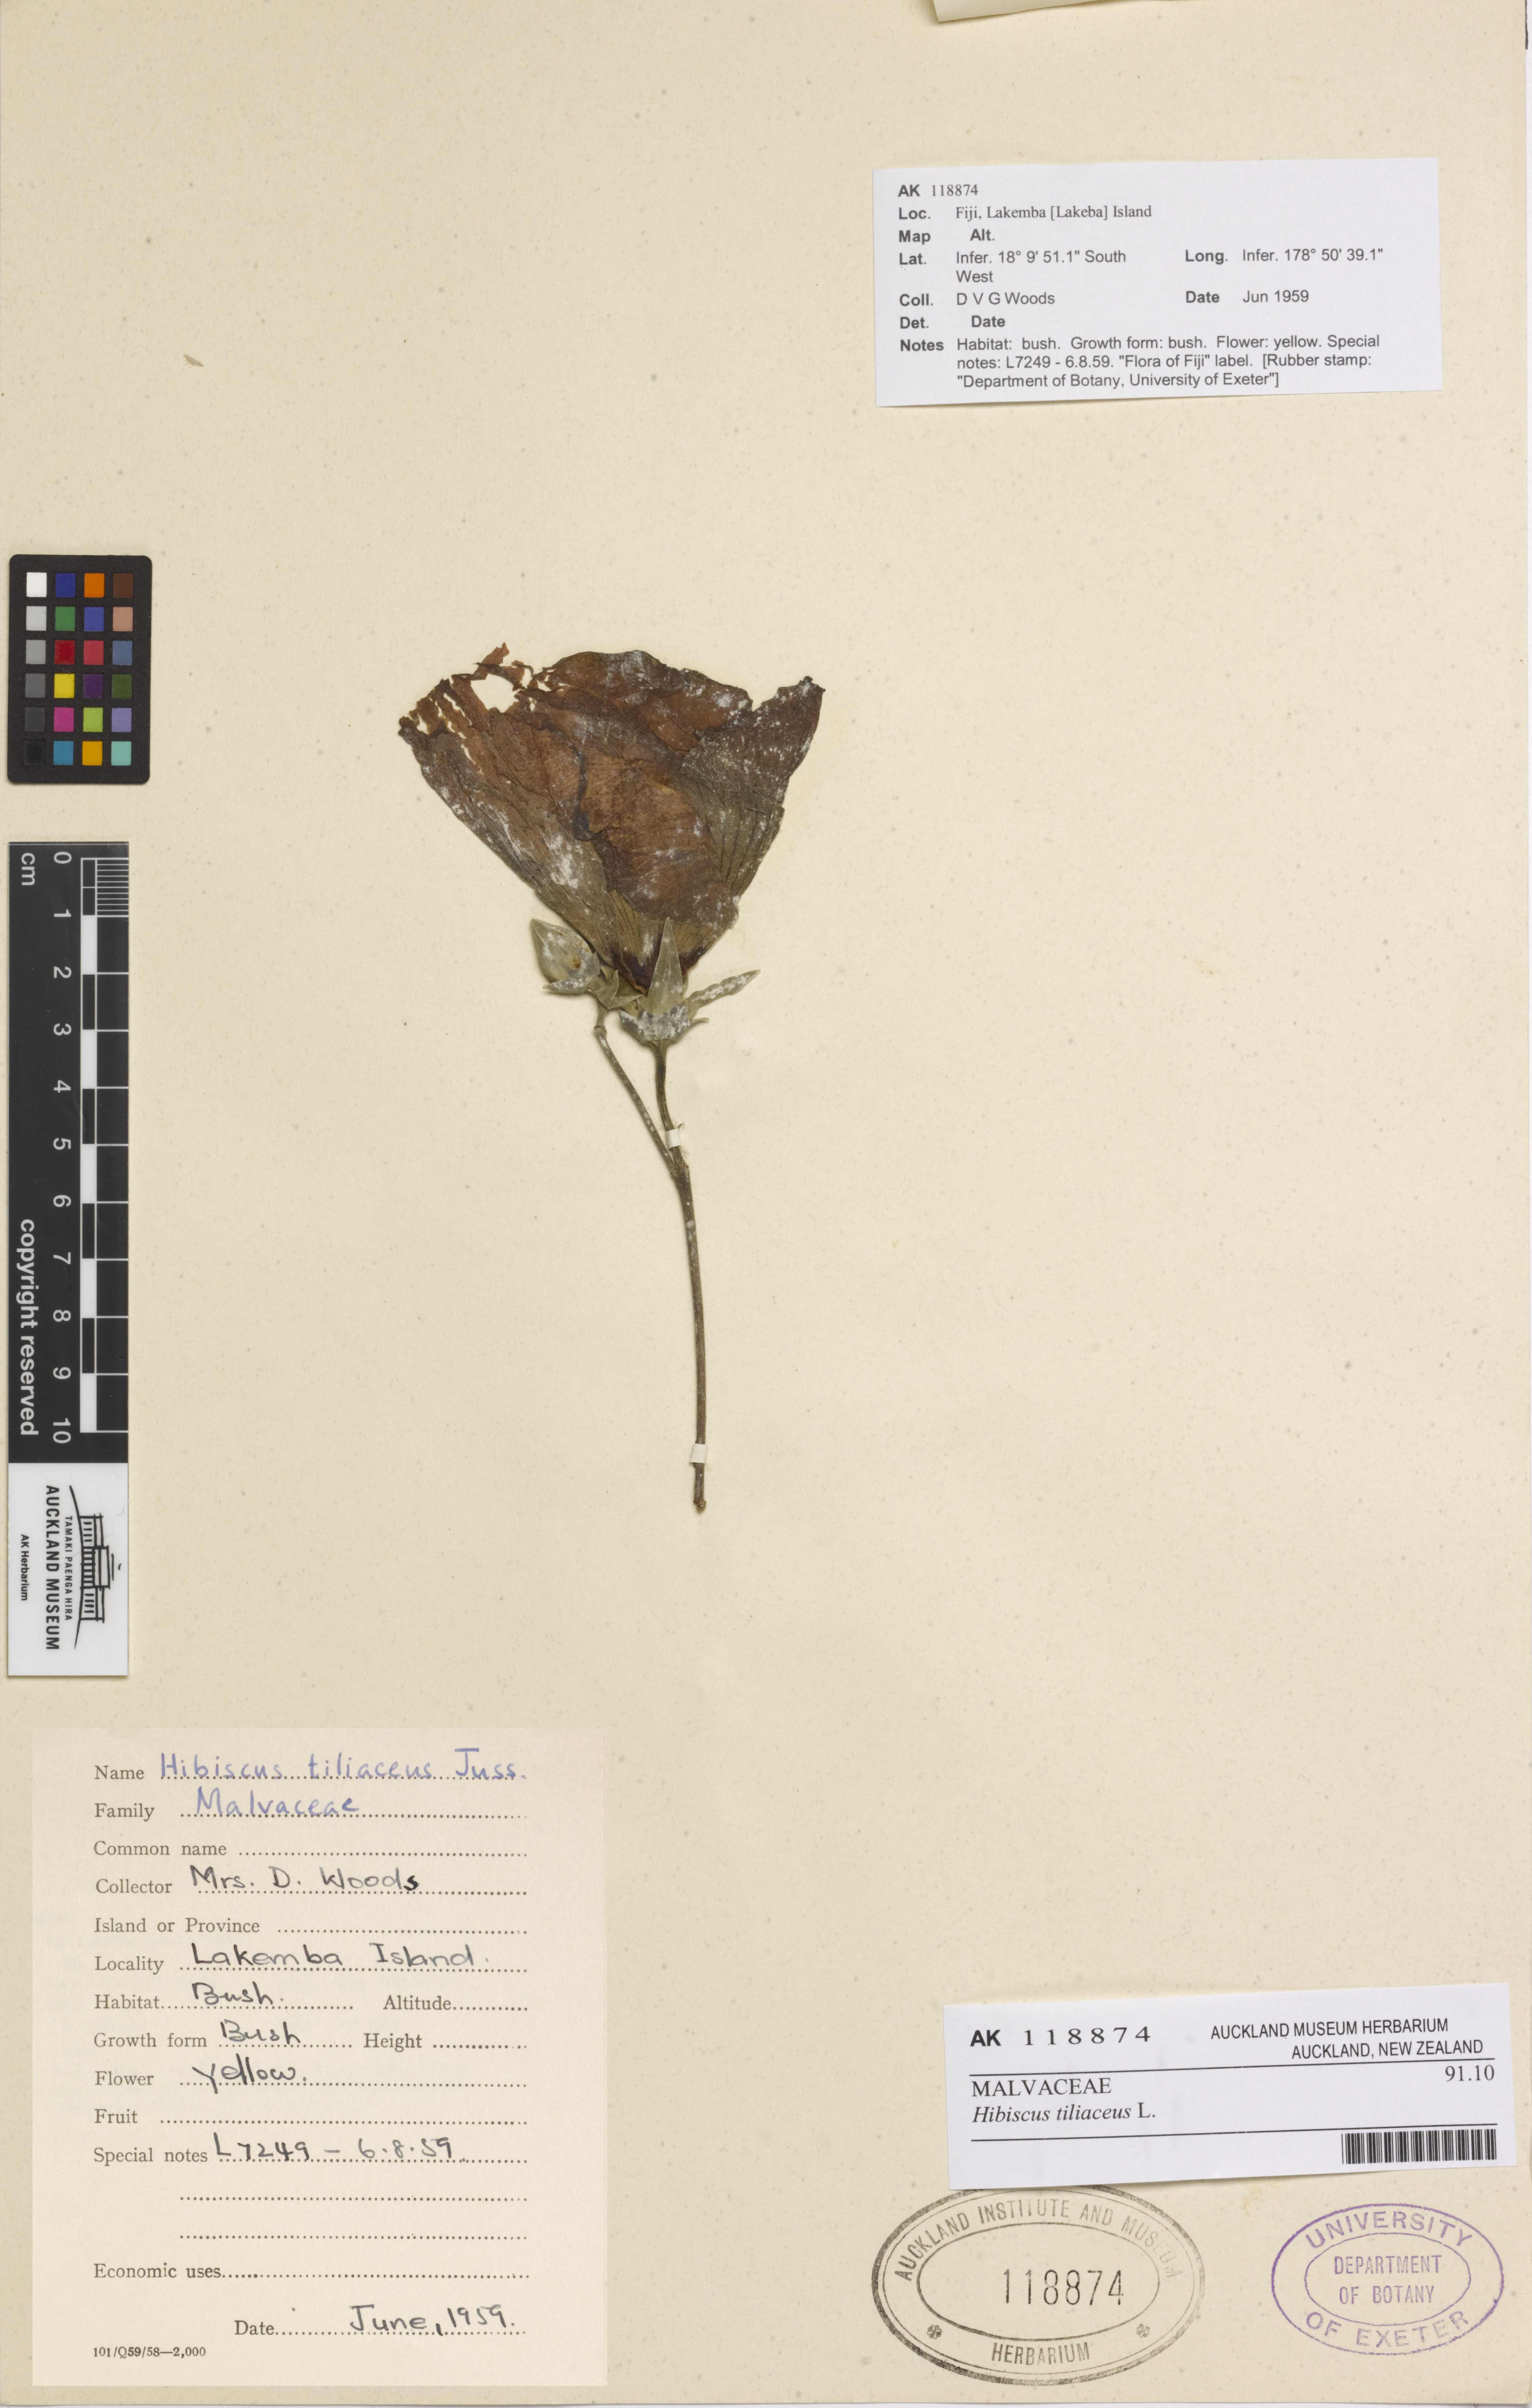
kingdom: Plantae
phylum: Tracheophyta
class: Magnoliopsida
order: Malvales
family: Malvaceae
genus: Talipariti
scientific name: Talipariti tiliaceum
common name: Sea hibiscus
